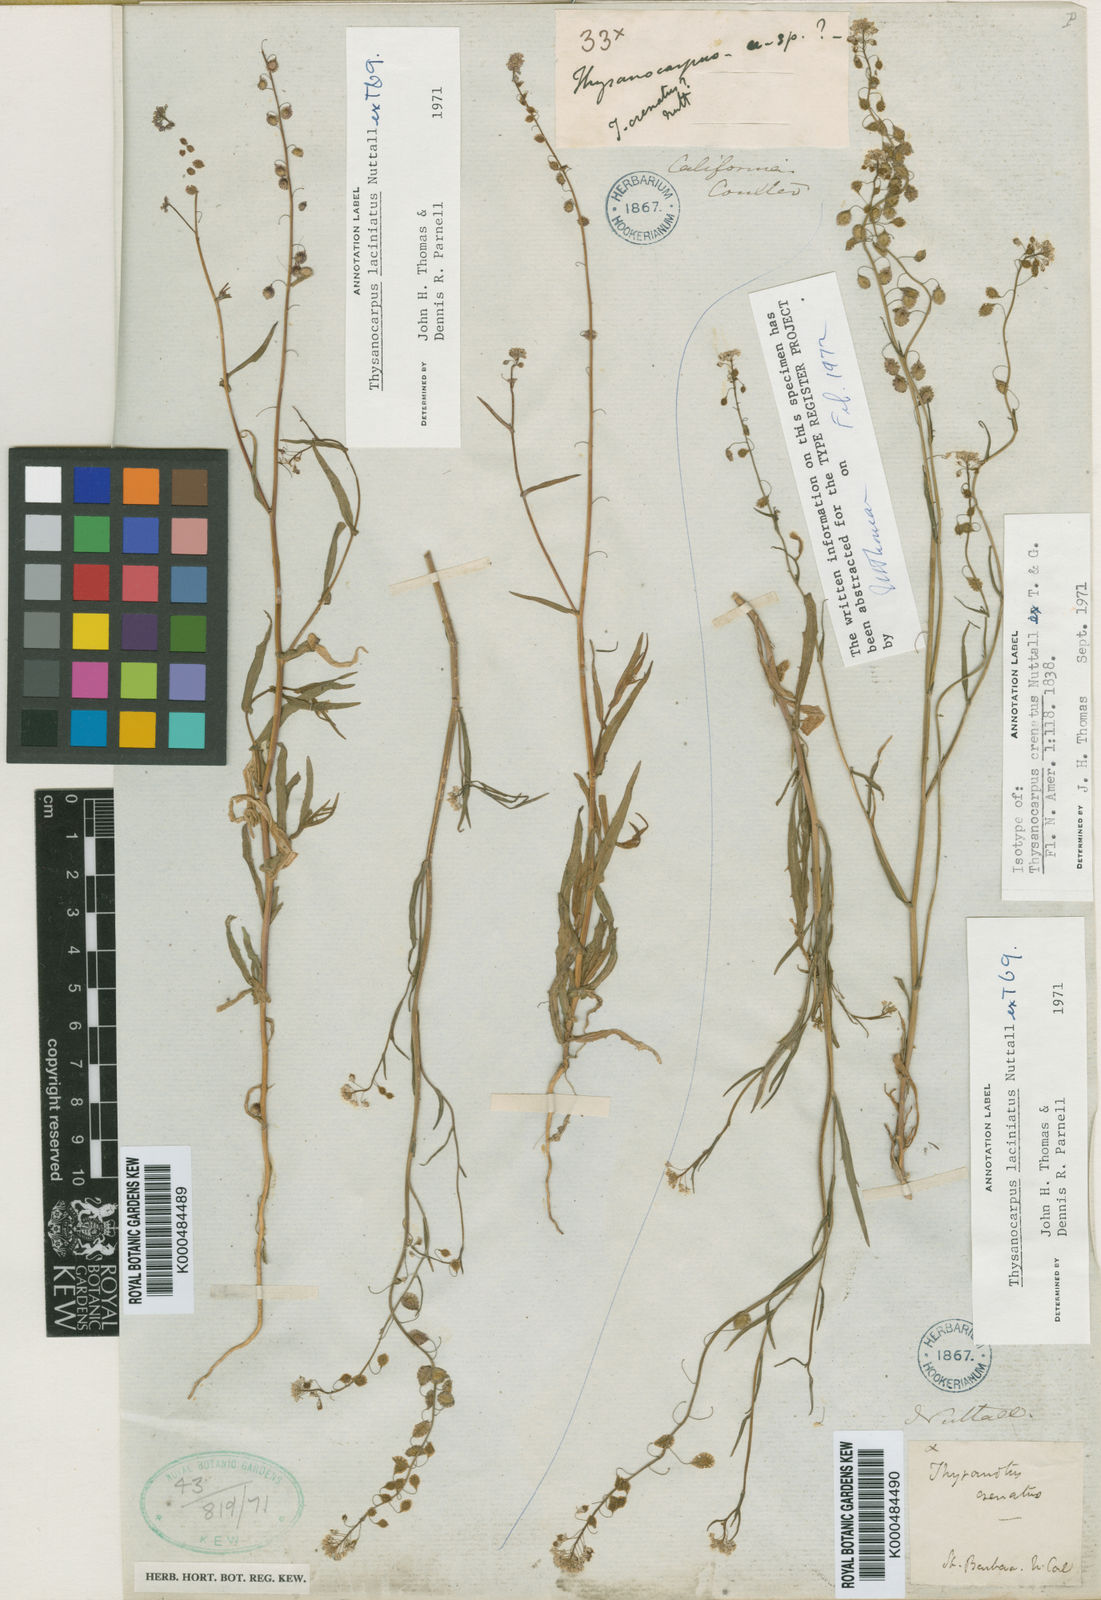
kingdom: Plantae
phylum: Tracheophyta
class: Magnoliopsida
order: Brassicales
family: Brassicaceae
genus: Thysanocarpus
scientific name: Thysanocarpus laciniatus
